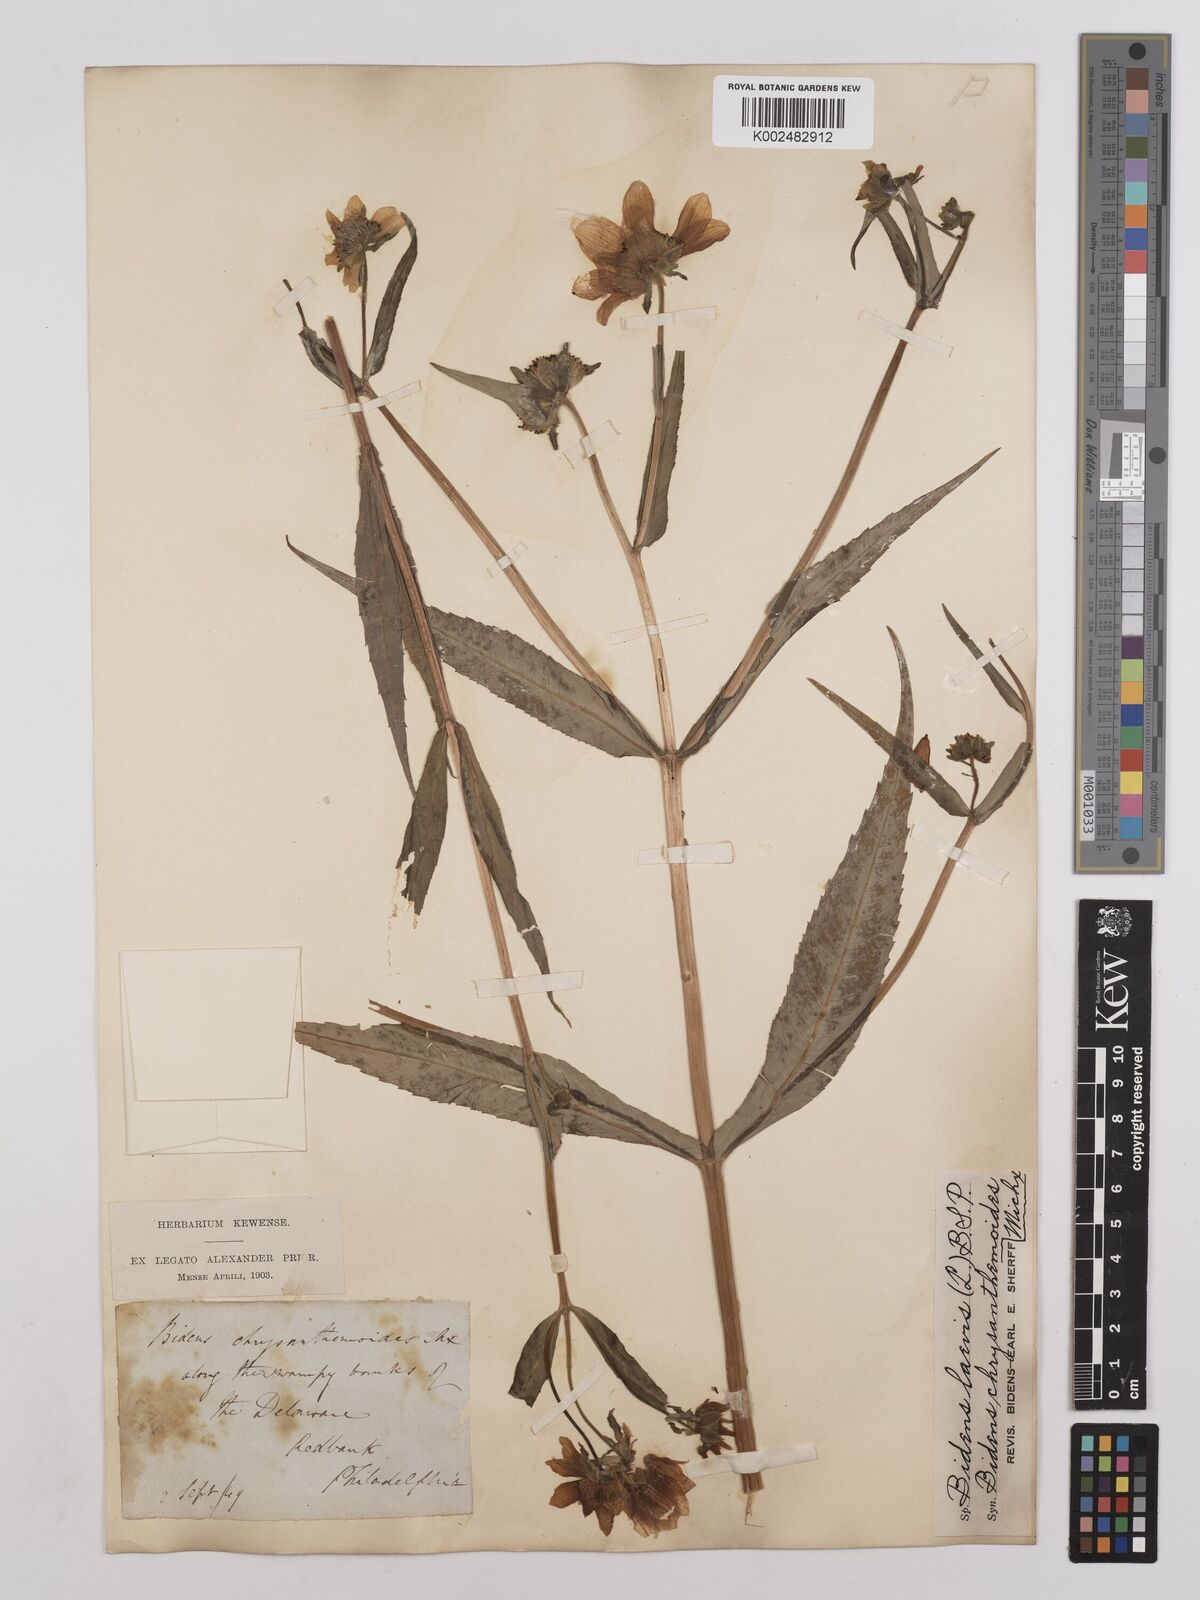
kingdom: Plantae
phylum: Tracheophyta
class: Magnoliopsida
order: Asterales
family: Asteraceae
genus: Bidens
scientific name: Bidens laevis
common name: Larger bur-marigold
